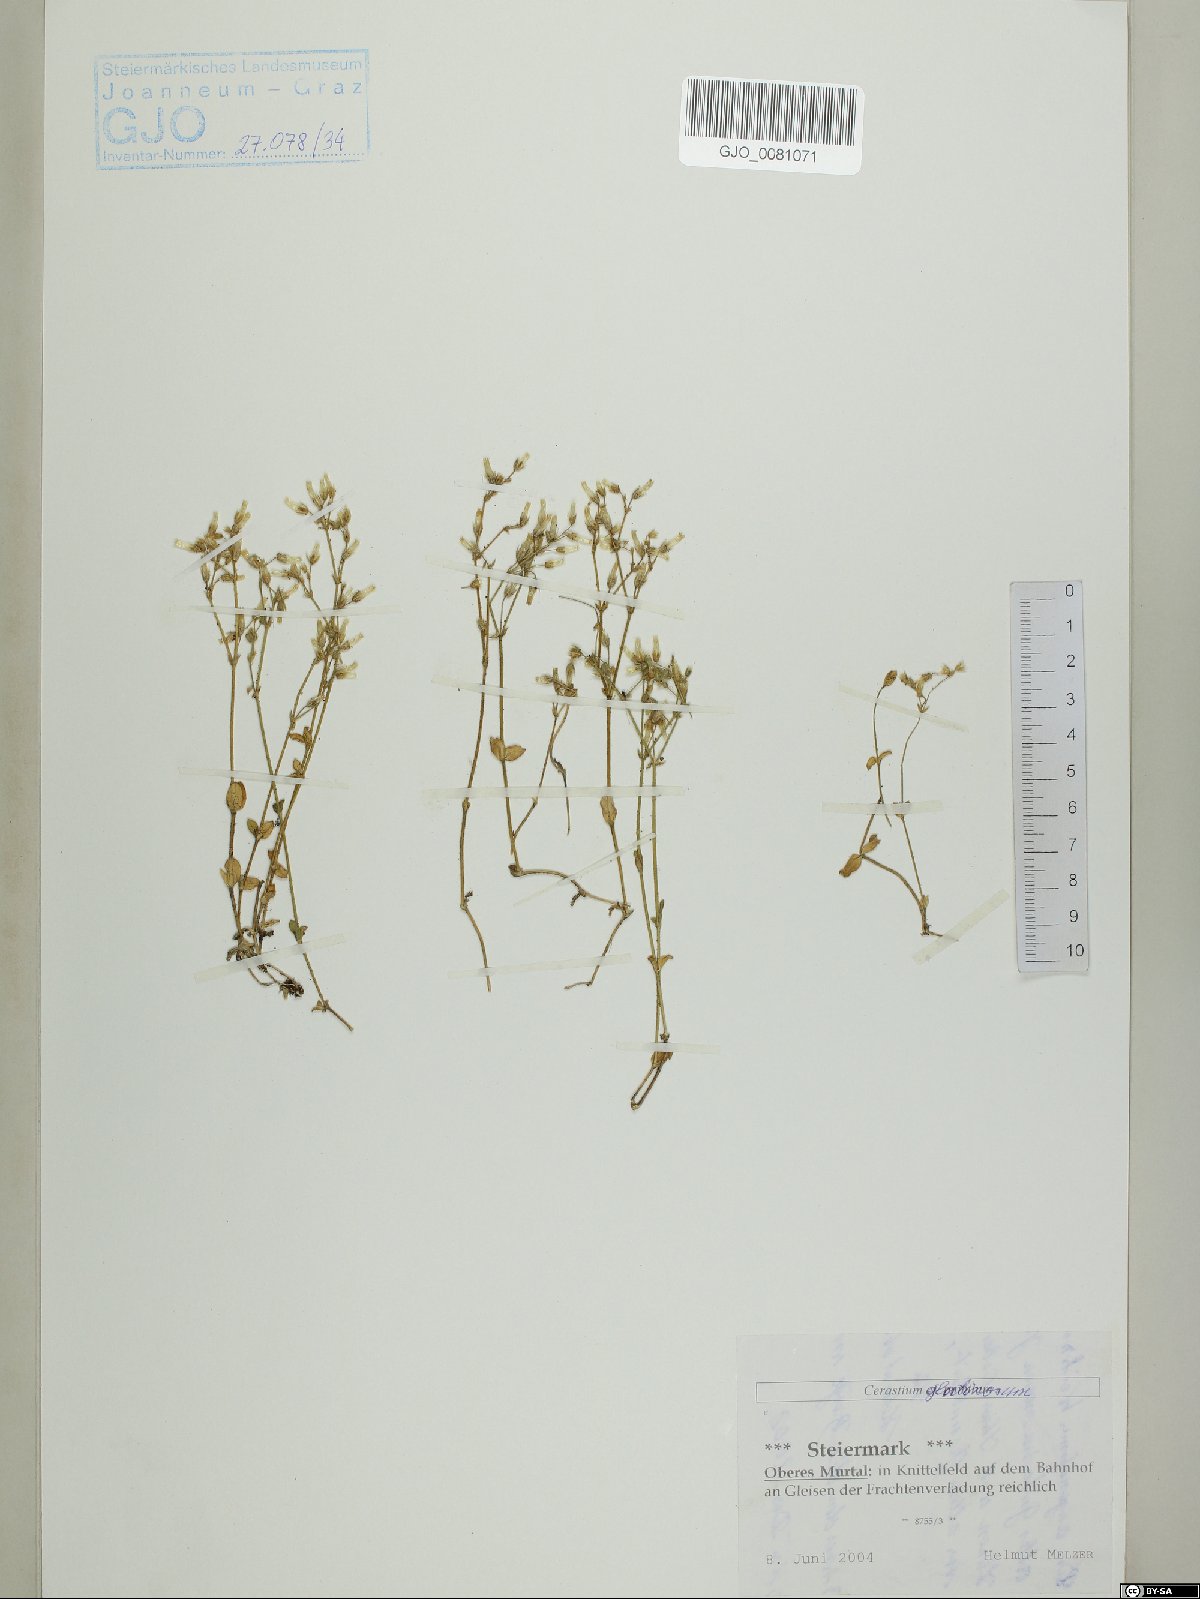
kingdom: Plantae
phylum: Tracheophyta
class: Magnoliopsida
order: Caryophyllales
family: Caryophyllaceae
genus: Cerastium
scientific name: Cerastium glutinosum
